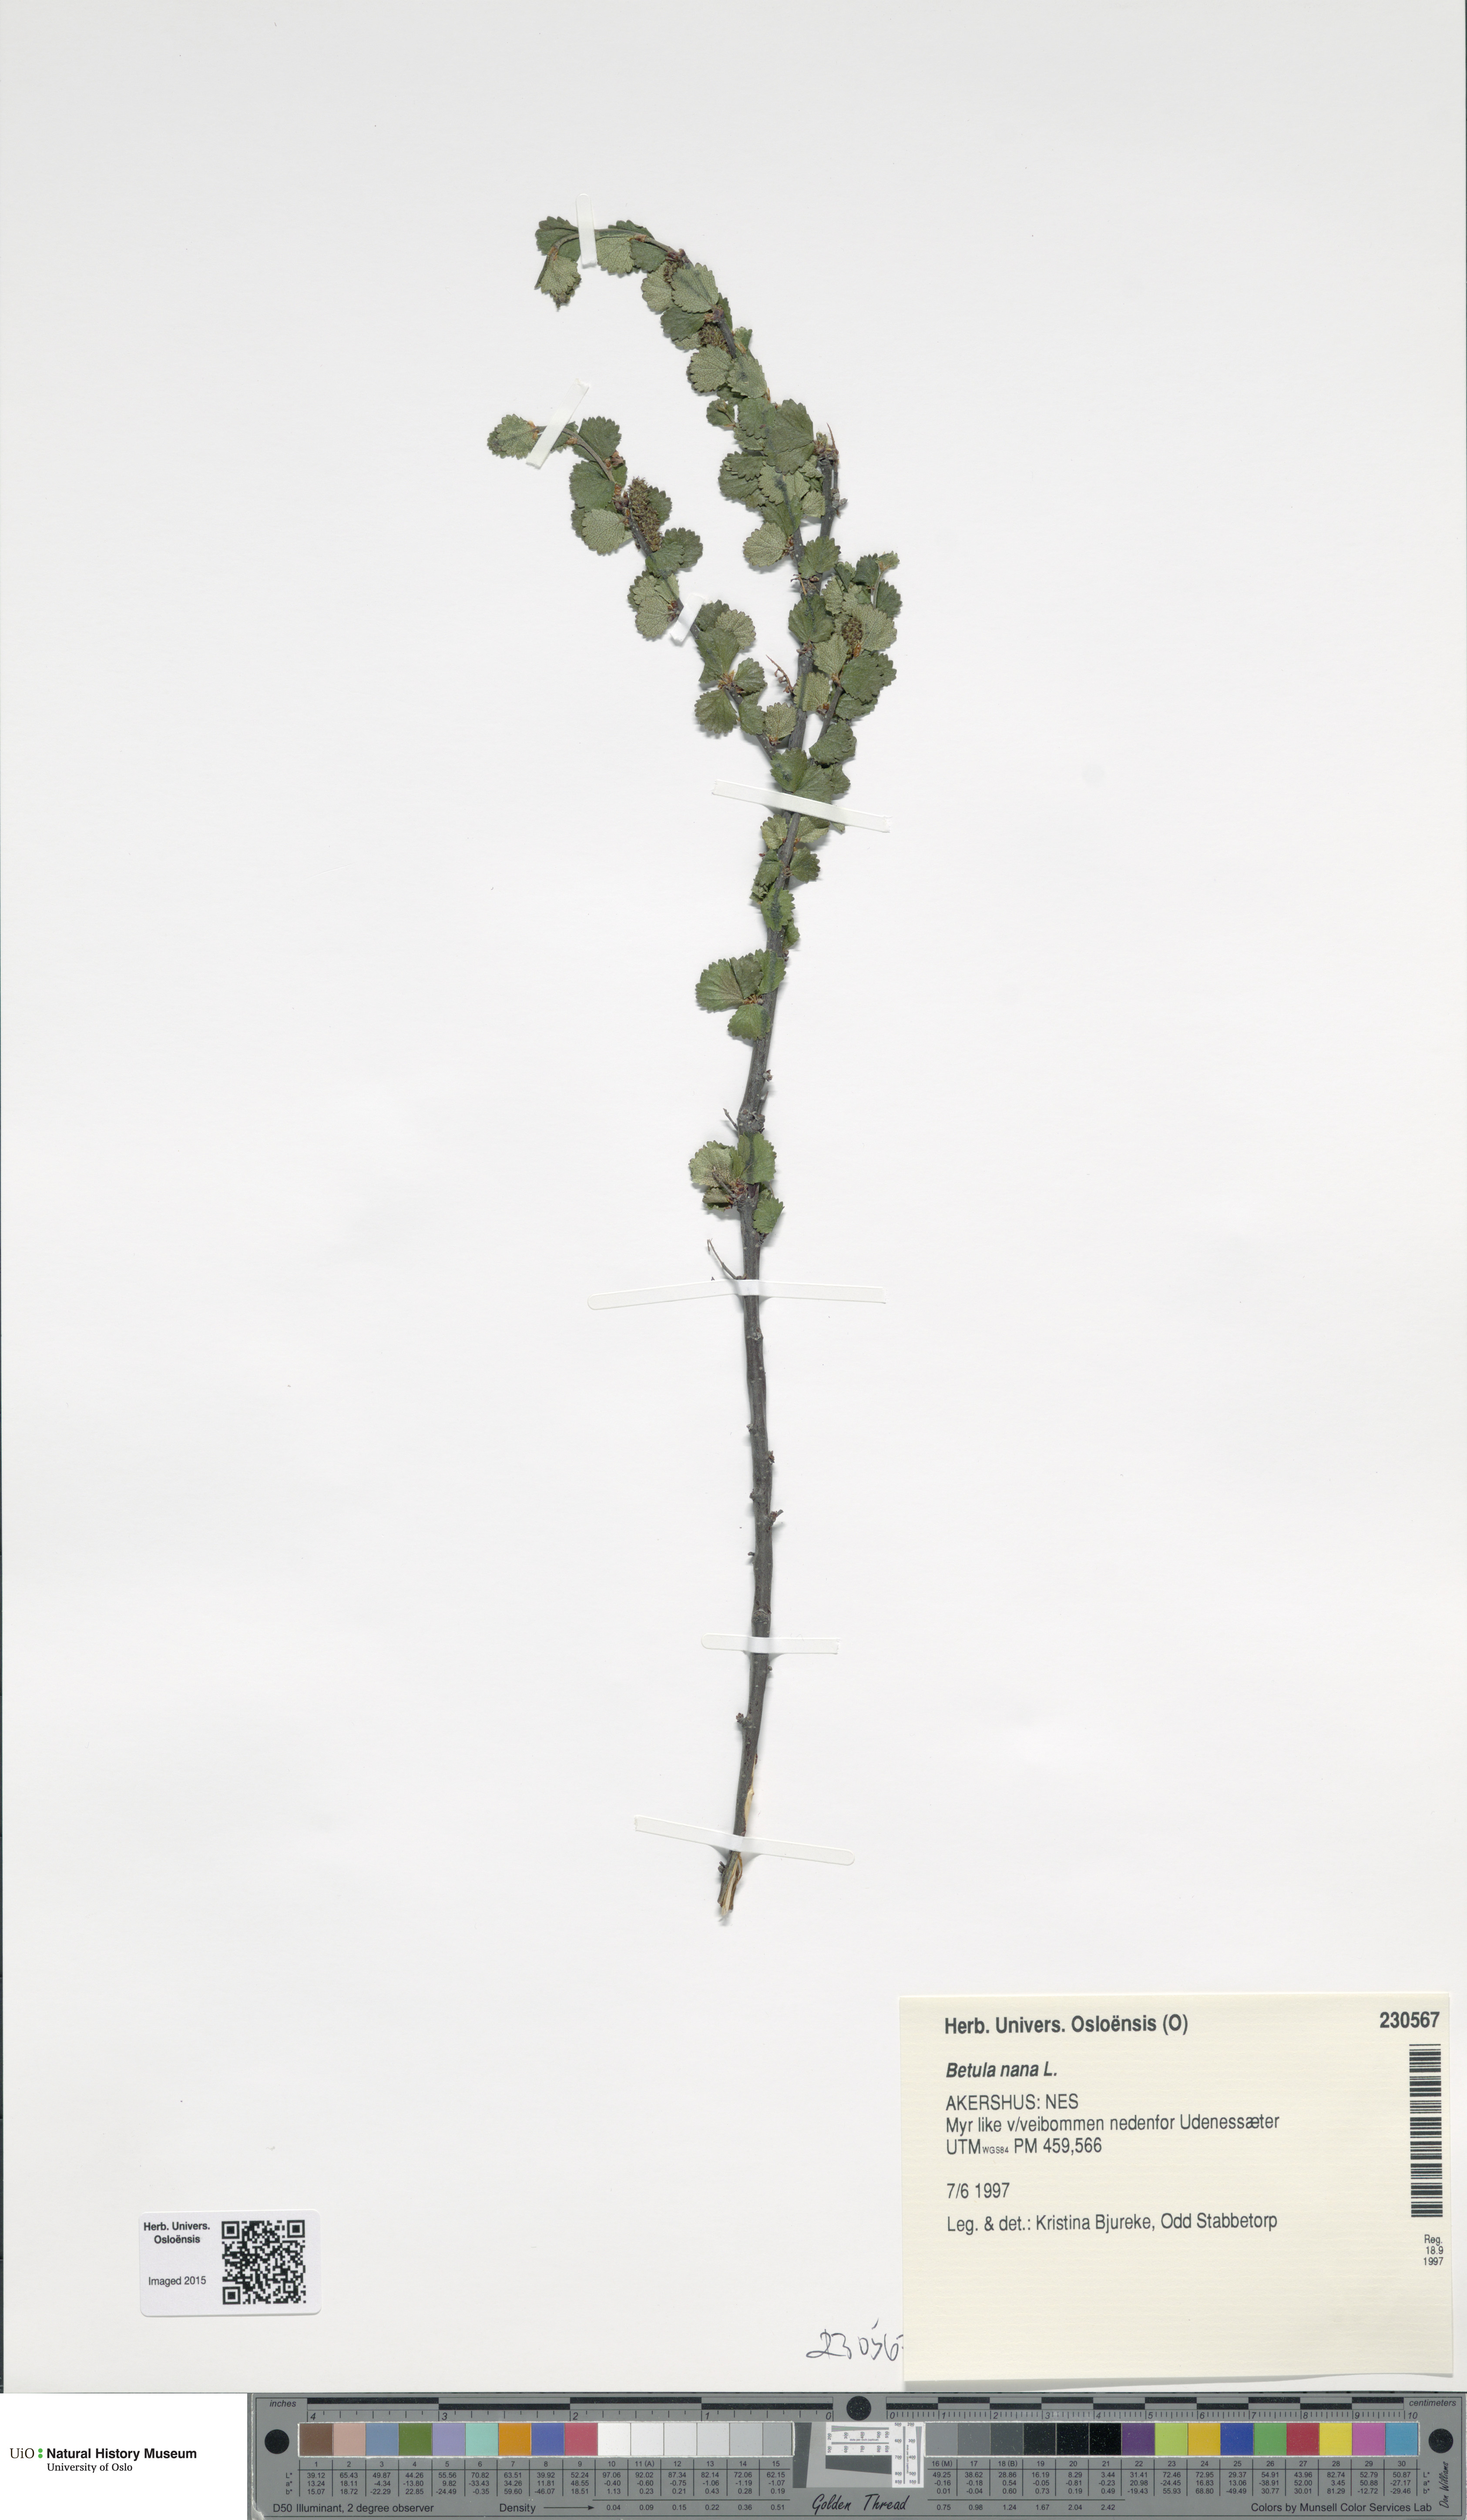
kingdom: Plantae
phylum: Tracheophyta
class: Magnoliopsida
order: Fagales
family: Betulaceae
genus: Betula
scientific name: Betula nana
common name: Arctic dwarf birch
